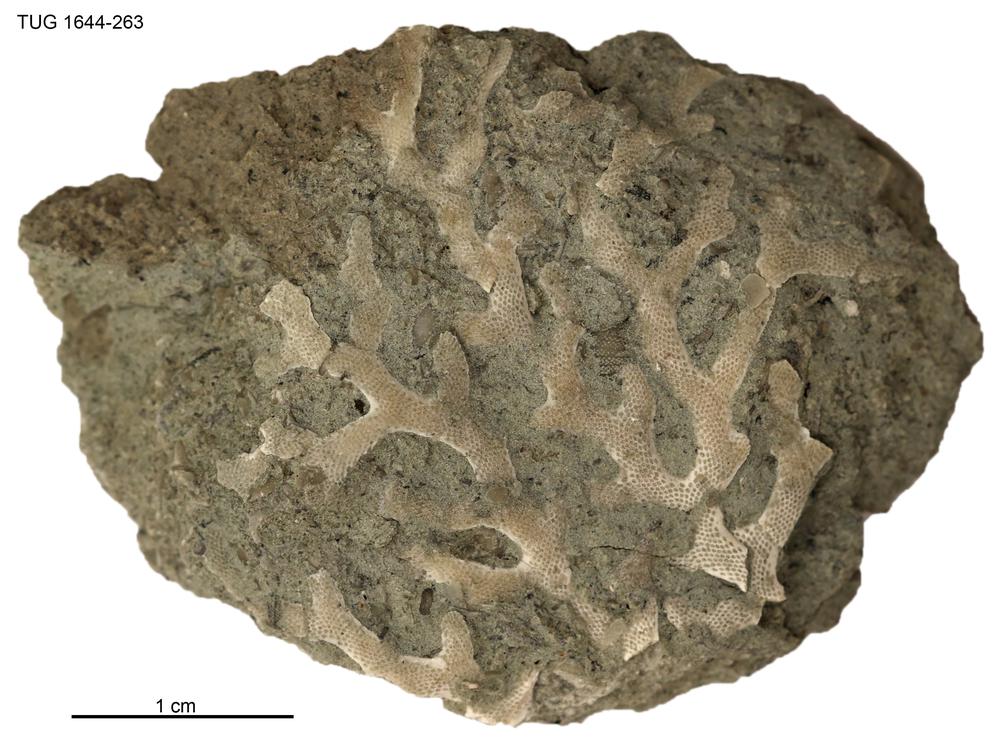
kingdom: Animalia
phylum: Bryozoa
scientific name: Bryozoa
